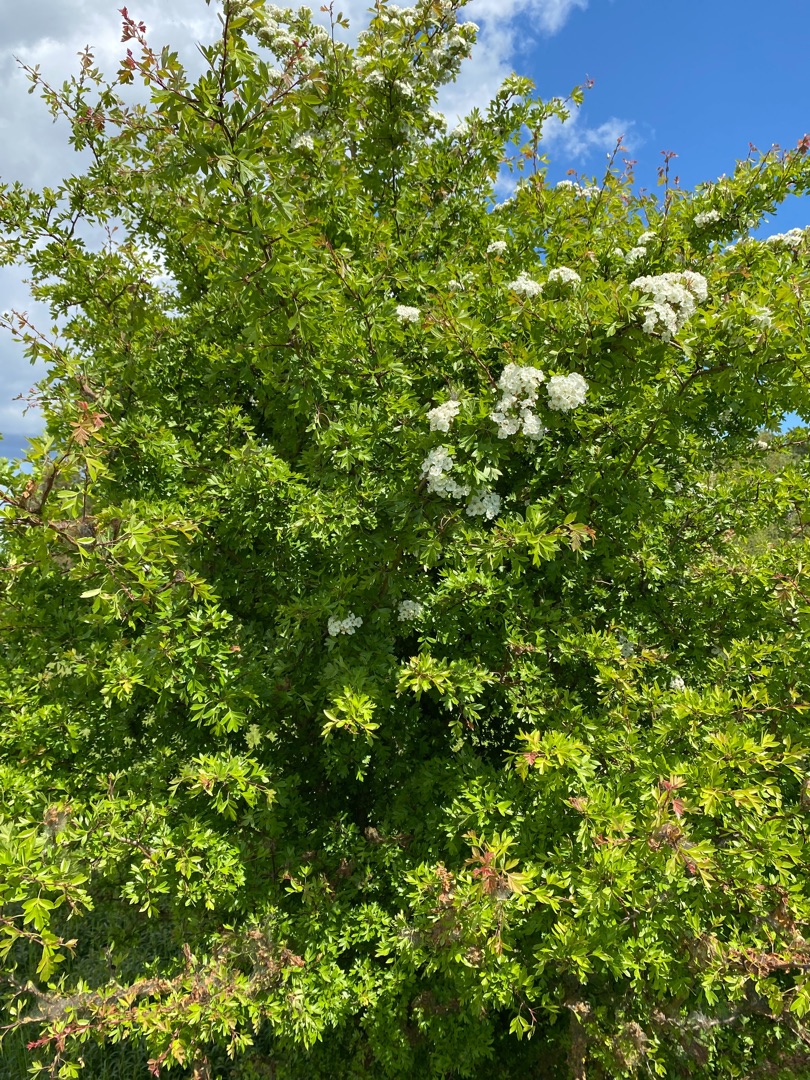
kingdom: Plantae
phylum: Tracheophyta
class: Magnoliopsida
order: Rosales
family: Rosaceae
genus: Crataegus
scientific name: Crataegus monogyna
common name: Engriflet hvidtjørn
